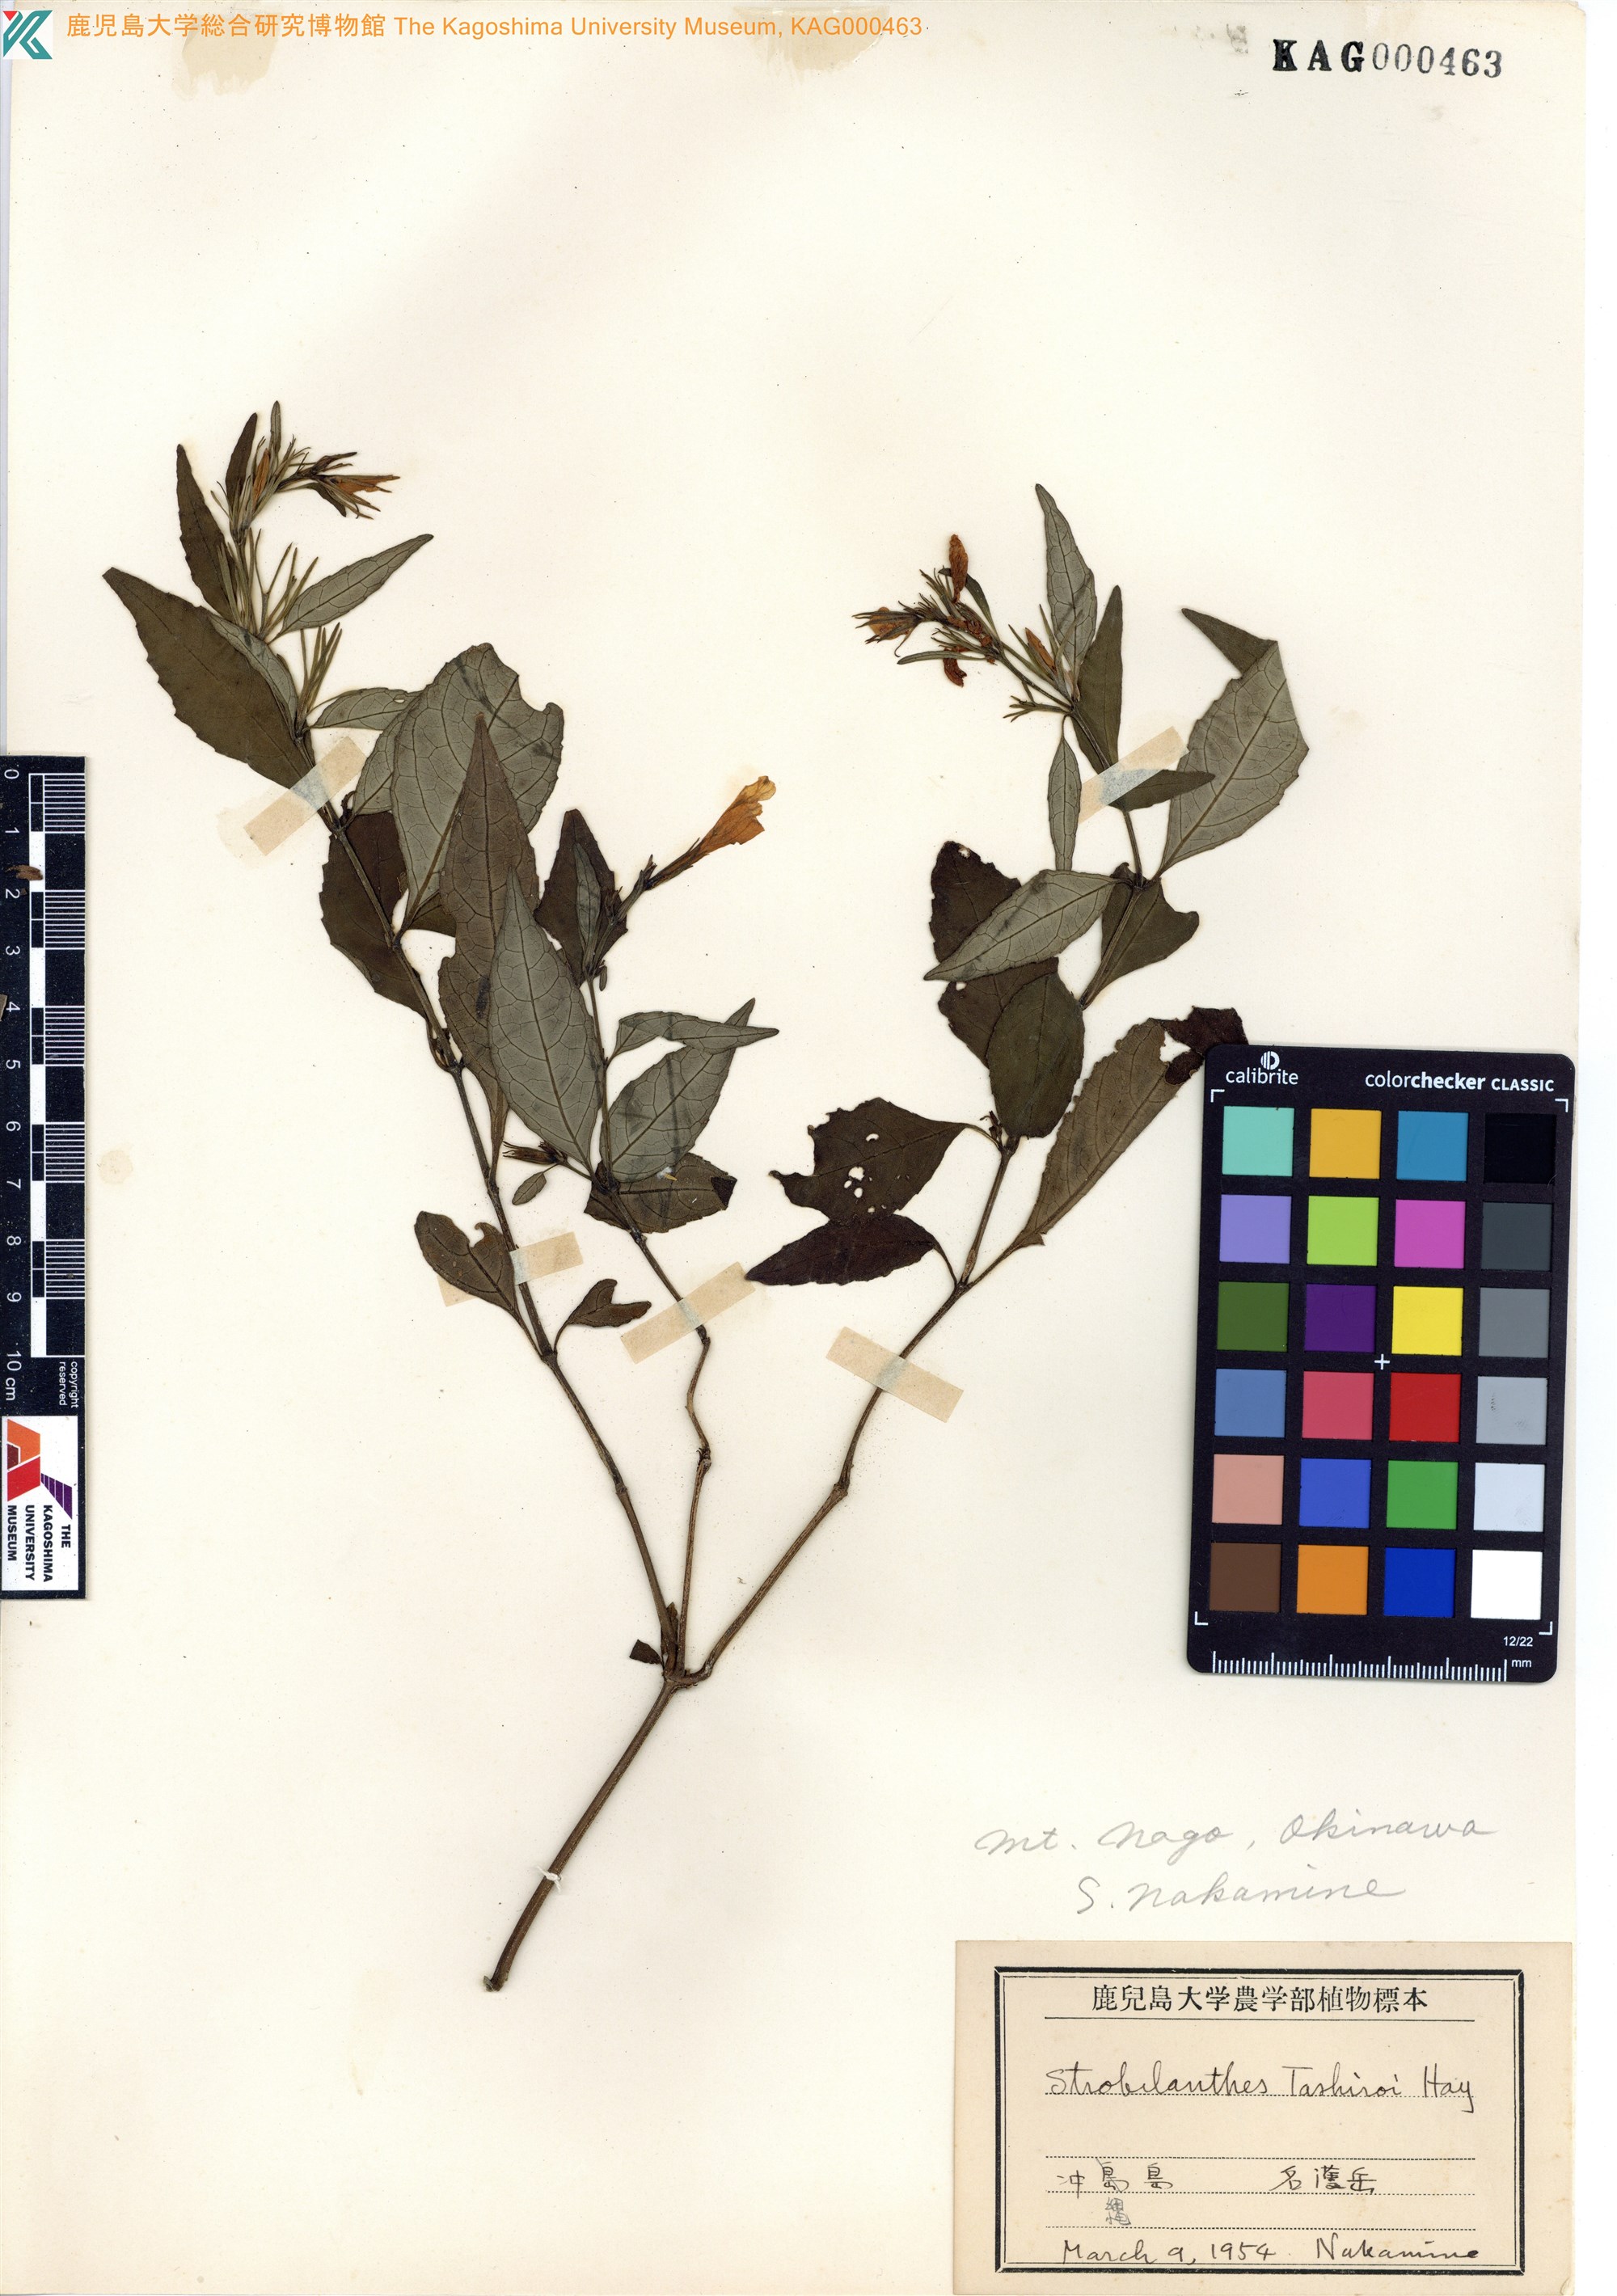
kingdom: Plantae
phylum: Tracheophyta
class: Magnoliopsida
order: Lamiales
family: Acanthaceae
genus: Strobilanthes
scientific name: Strobilanthes flexicaulis
